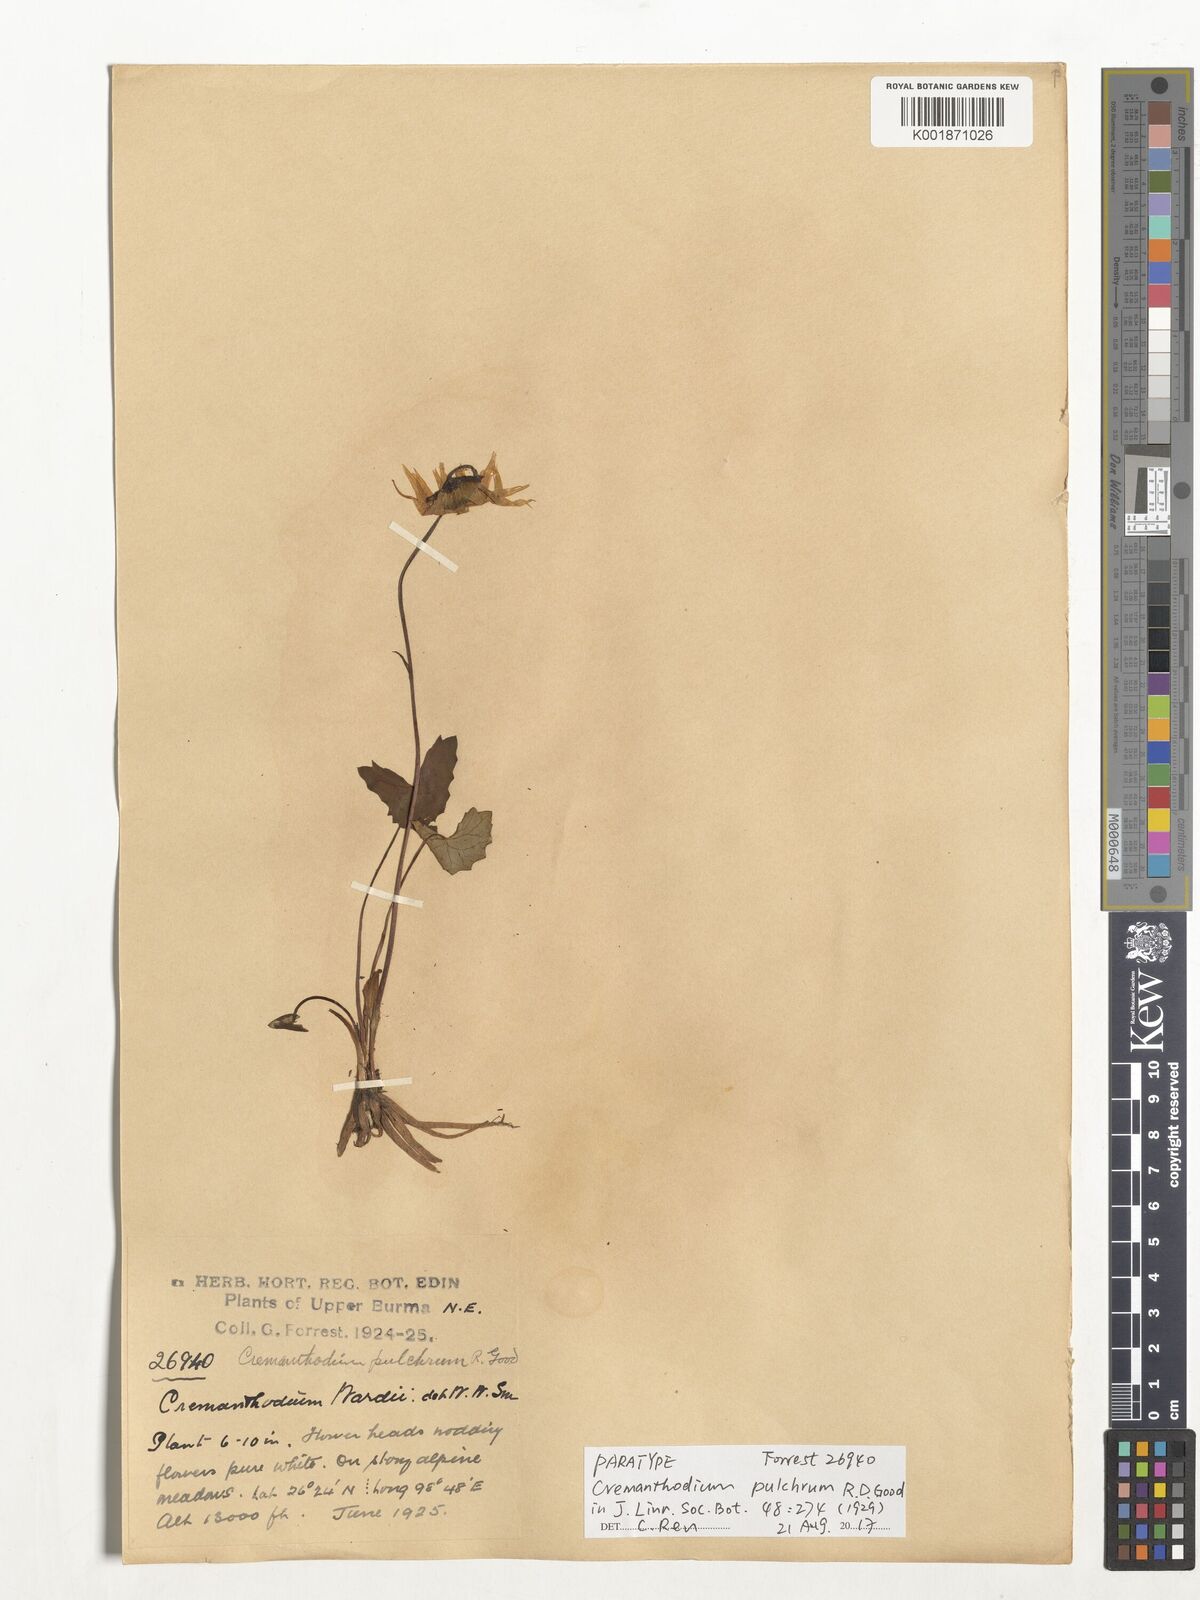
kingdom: Plantae
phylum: Tracheophyta
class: Magnoliopsida
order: Asterales
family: Asteraceae
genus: Cremanthodium
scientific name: Cremanthodium pulchrum
